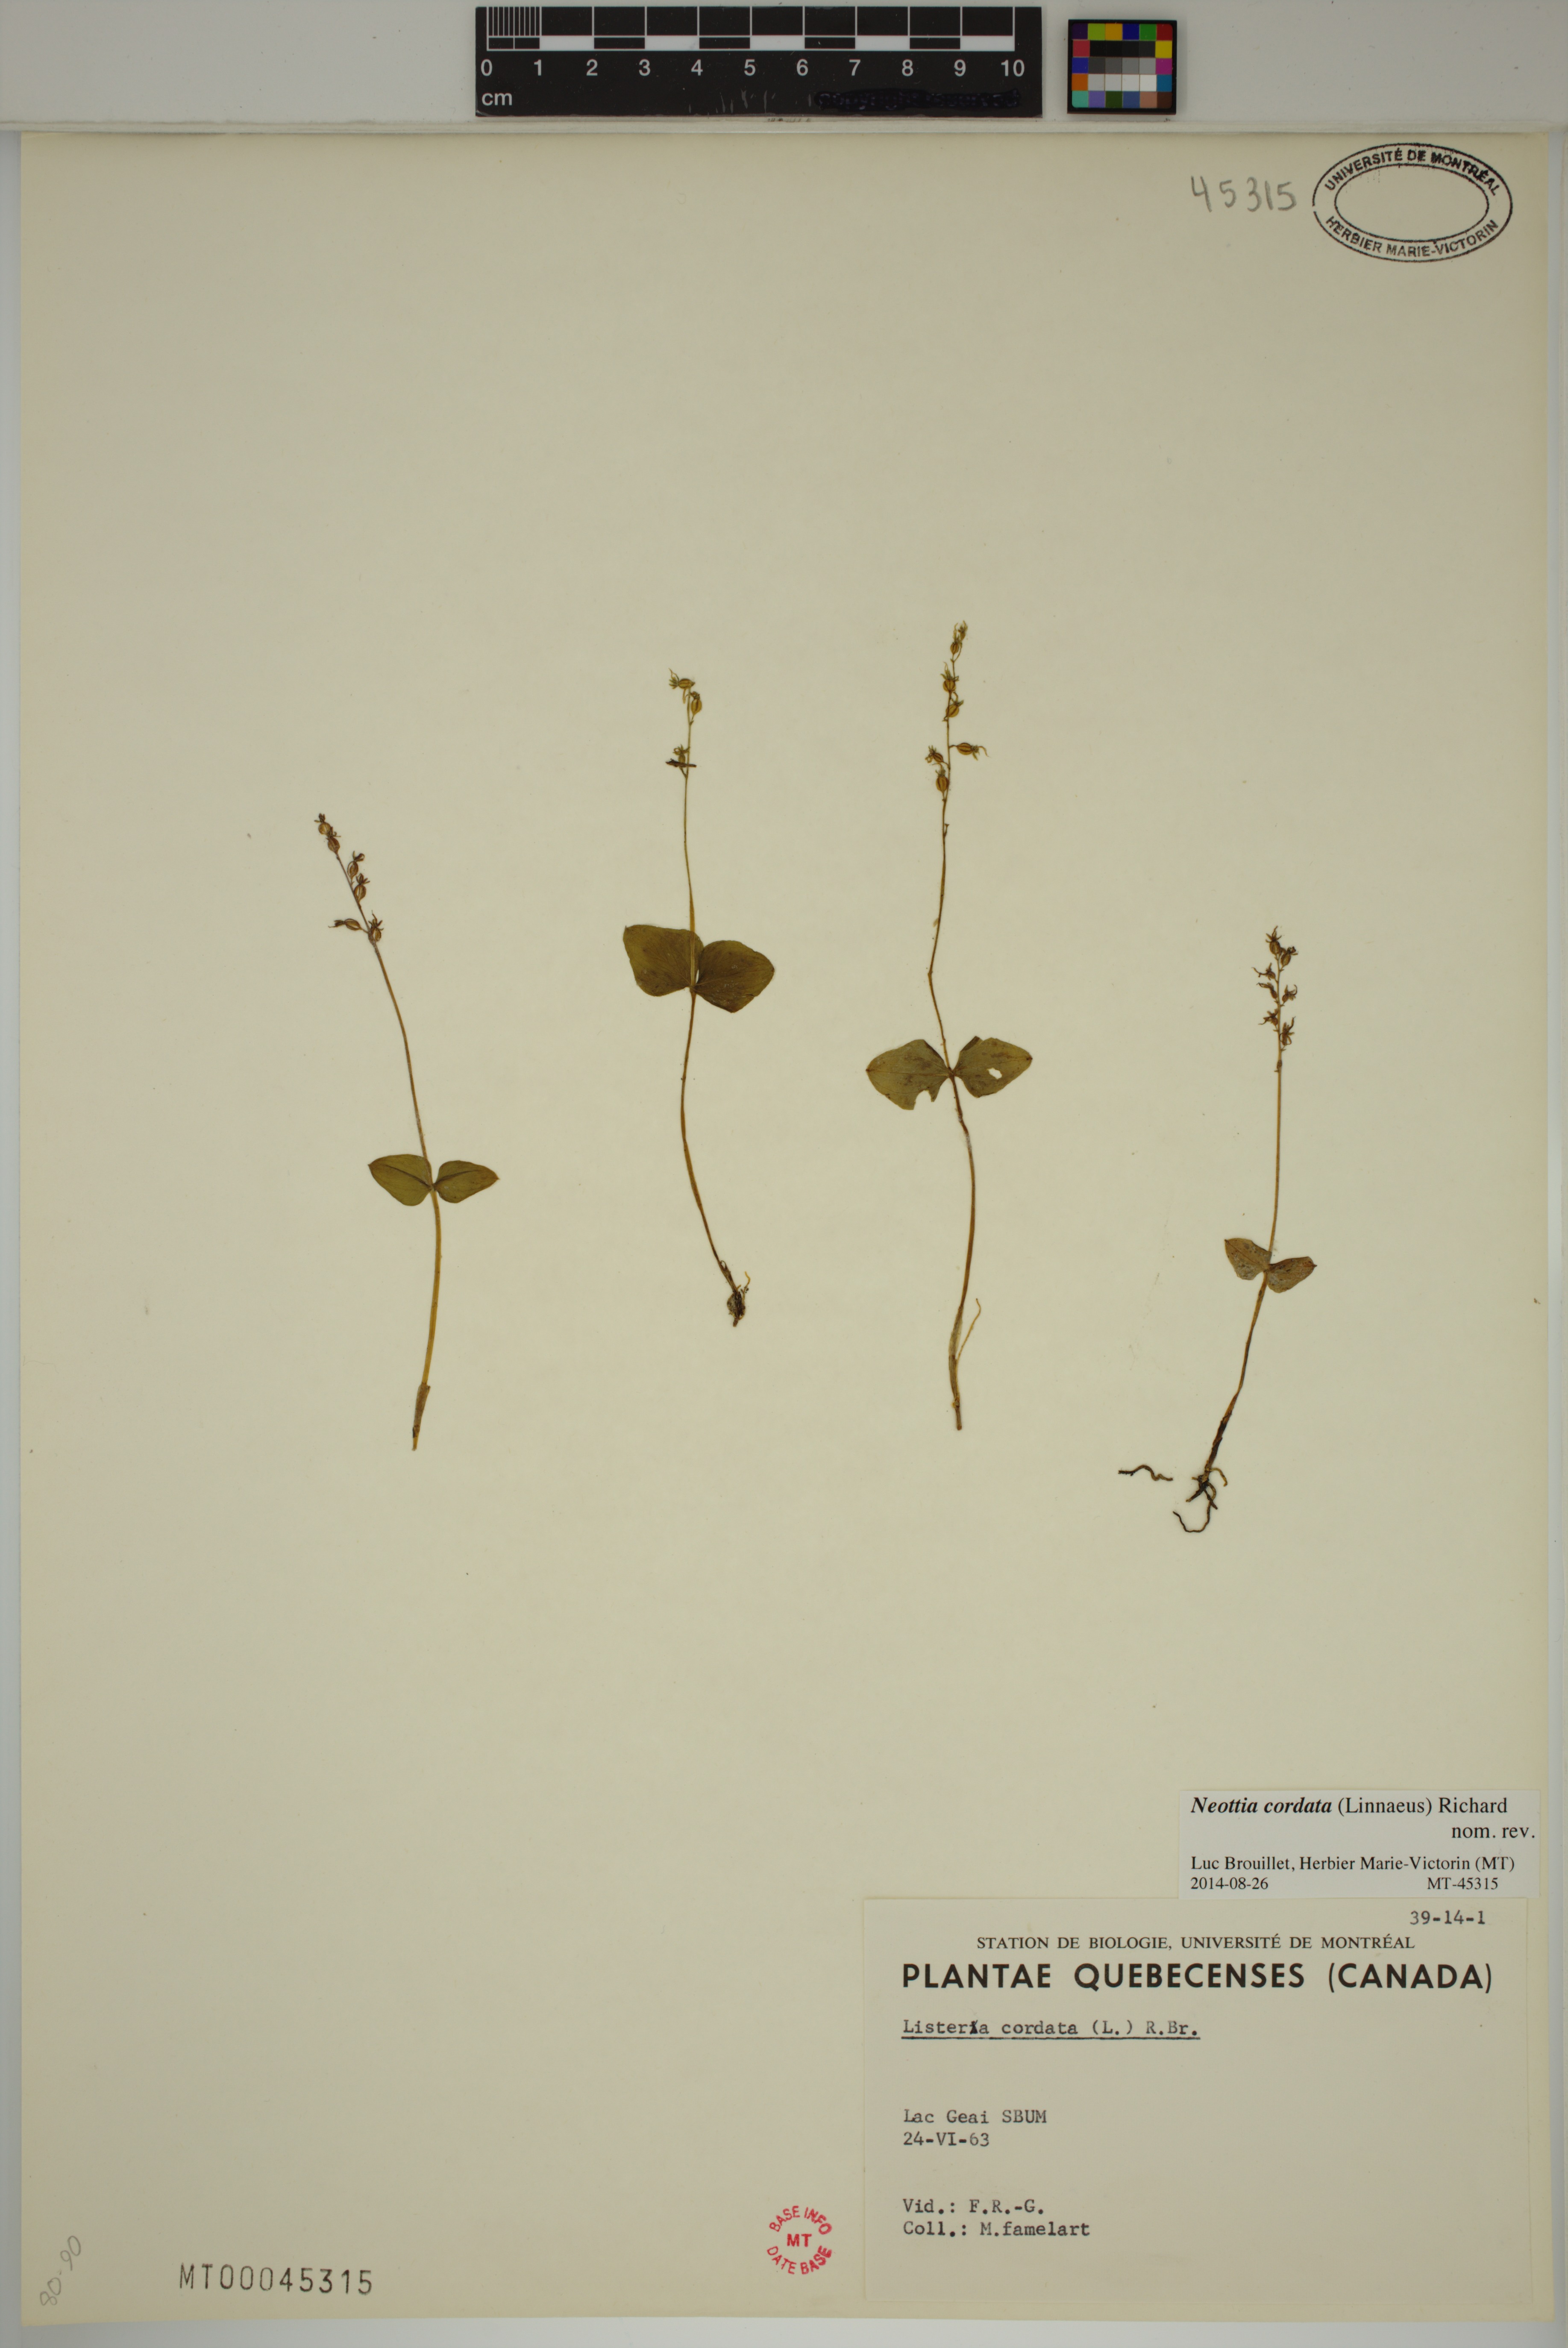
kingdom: Plantae
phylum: Tracheophyta
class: Liliopsida
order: Asparagales
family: Orchidaceae
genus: Neottia
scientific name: Neottia cordata
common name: Lesser twayblade
